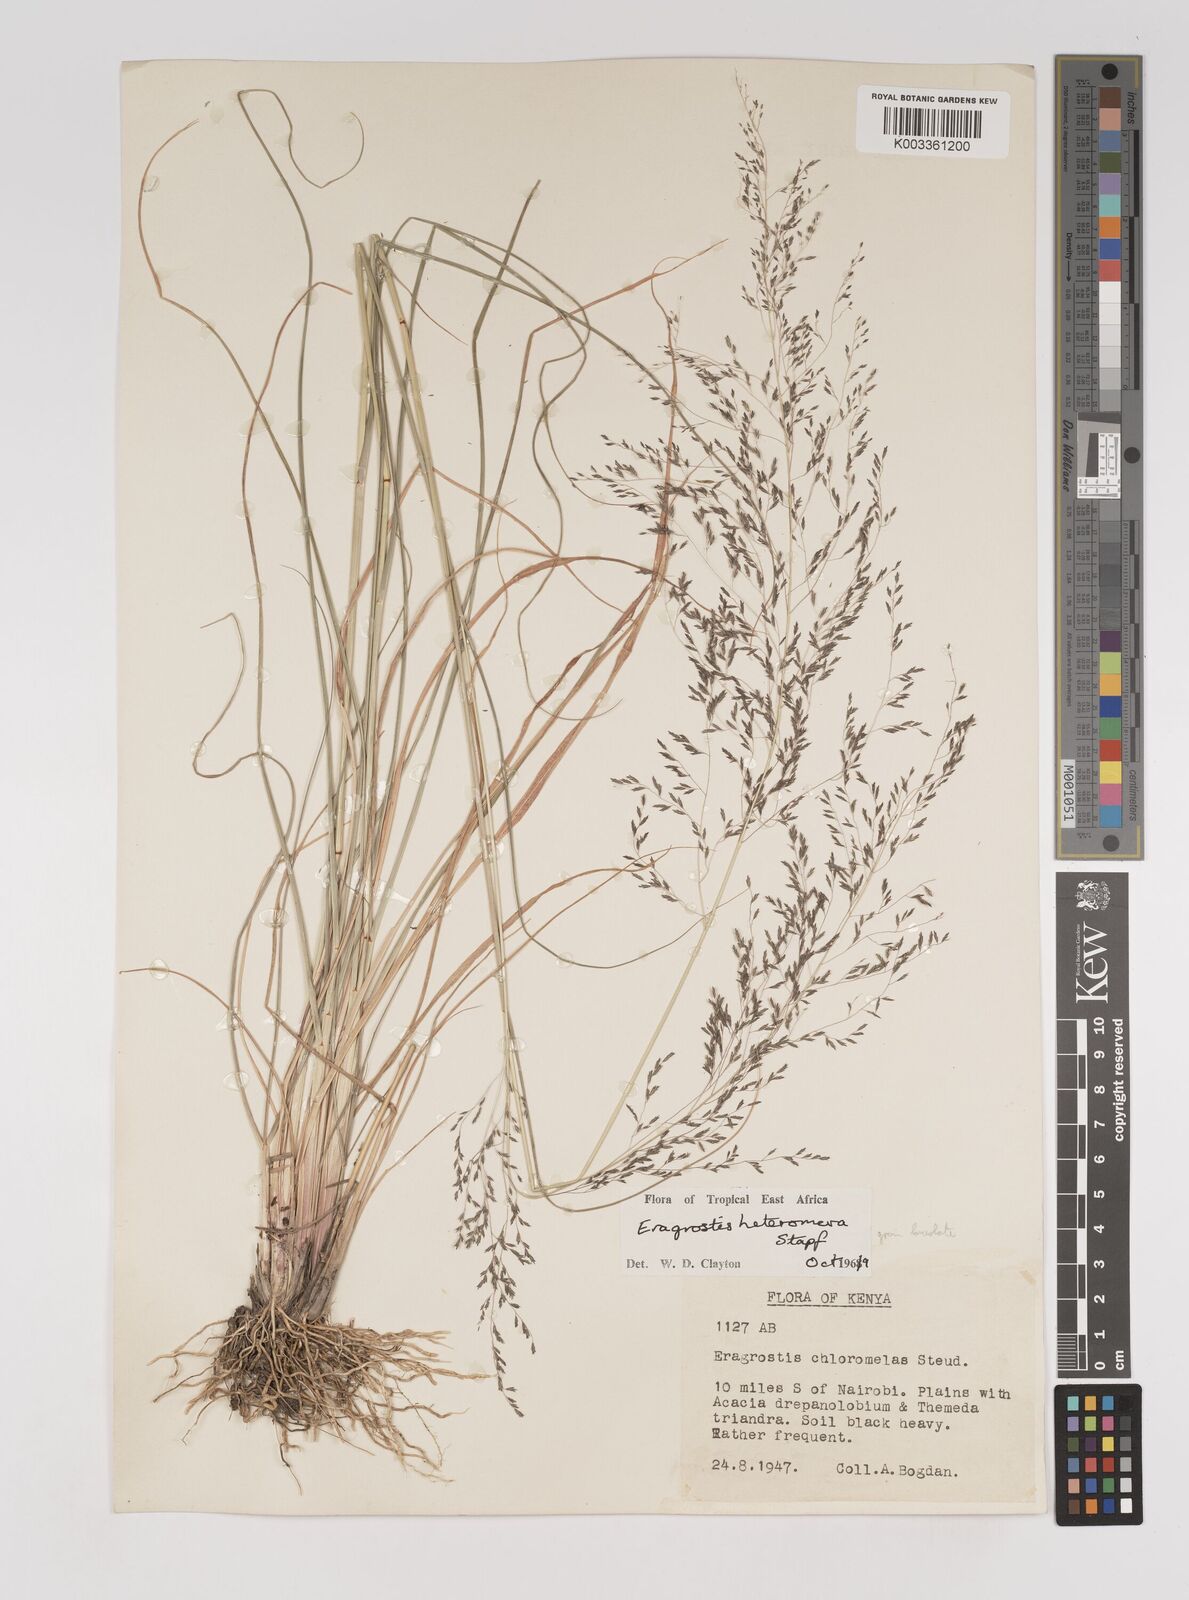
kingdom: Plantae
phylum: Tracheophyta
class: Liliopsida
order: Poales
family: Poaceae
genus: Eragrostis
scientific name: Eragrostis heteromera
